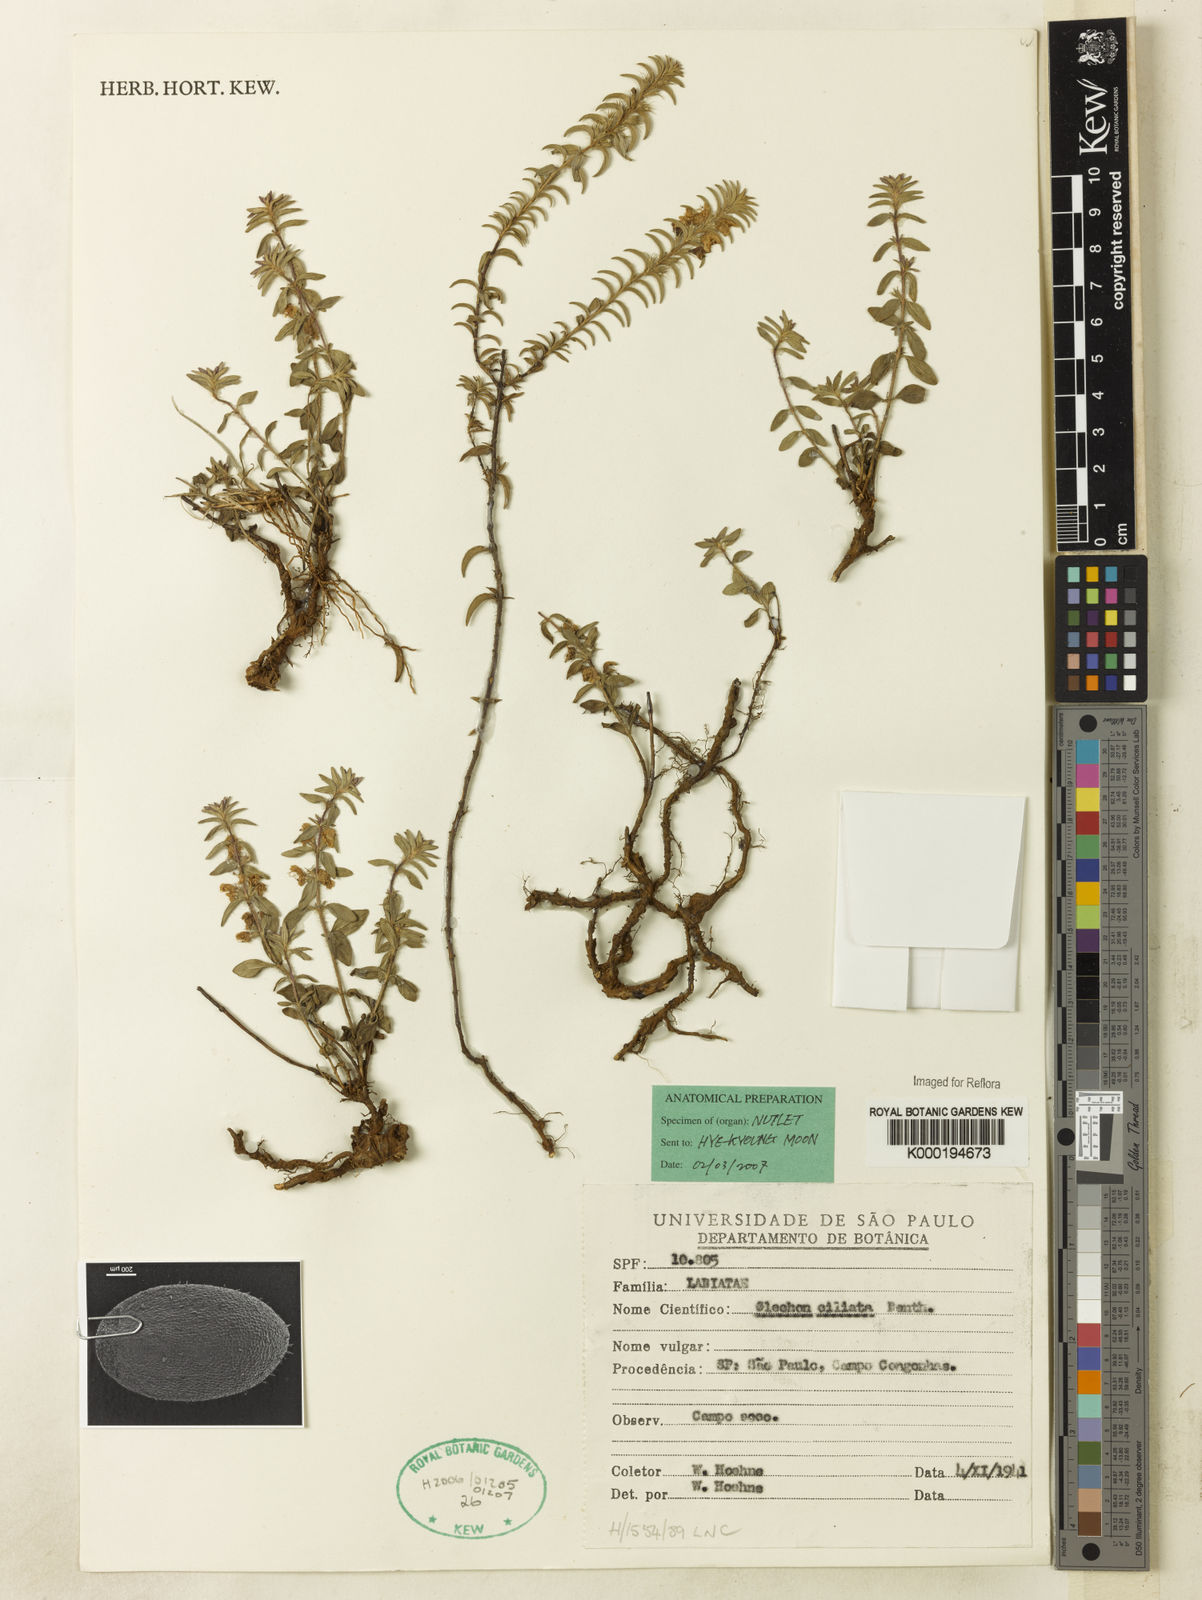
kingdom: Plantae
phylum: Tracheophyta
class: Magnoliopsida
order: Lamiales
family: Lamiaceae
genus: Glechon
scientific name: Glechon ciliata
